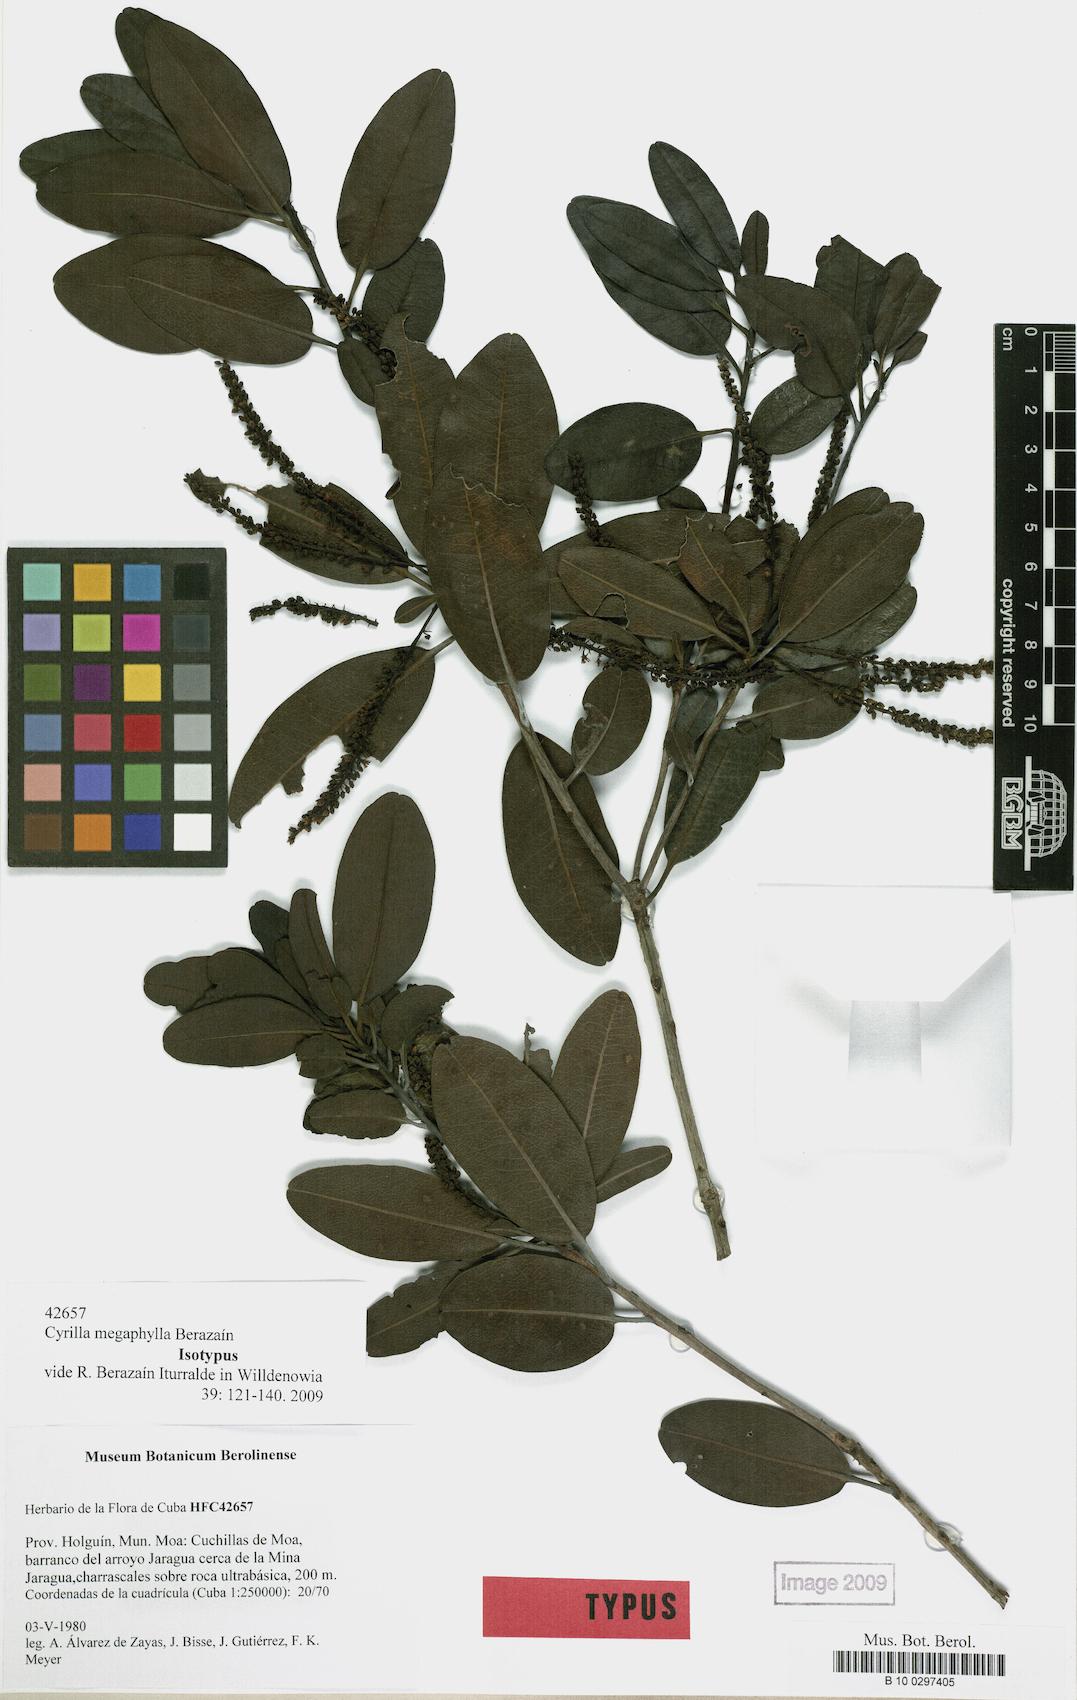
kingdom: Plantae
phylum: Tracheophyta
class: Magnoliopsida
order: Ericales
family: Cyrillaceae
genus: Cyrilla
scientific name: Cyrilla megaphylla
